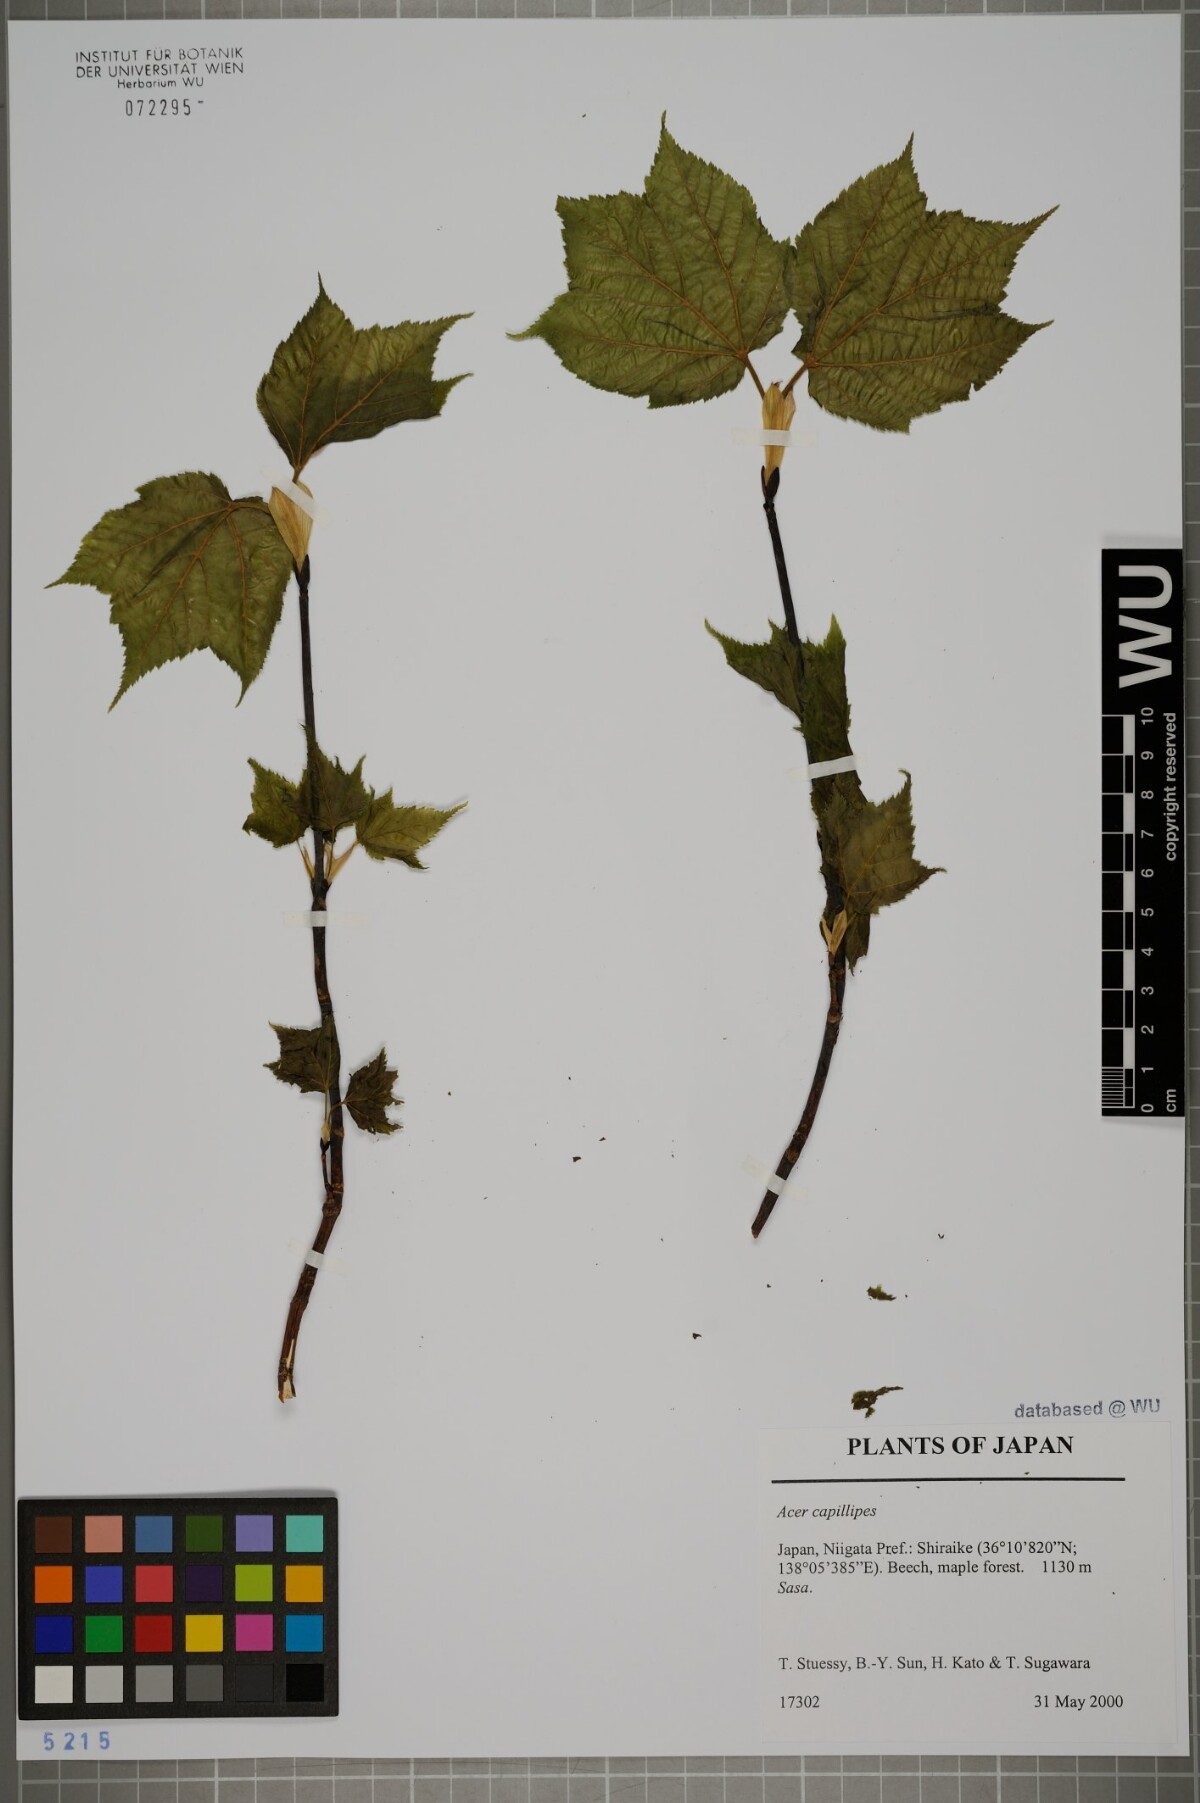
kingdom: Plantae
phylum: Tracheophyta
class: Magnoliopsida
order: Sapindales
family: Sapindaceae
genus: Acer
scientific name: Acer capillipes
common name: Kyushu maple
